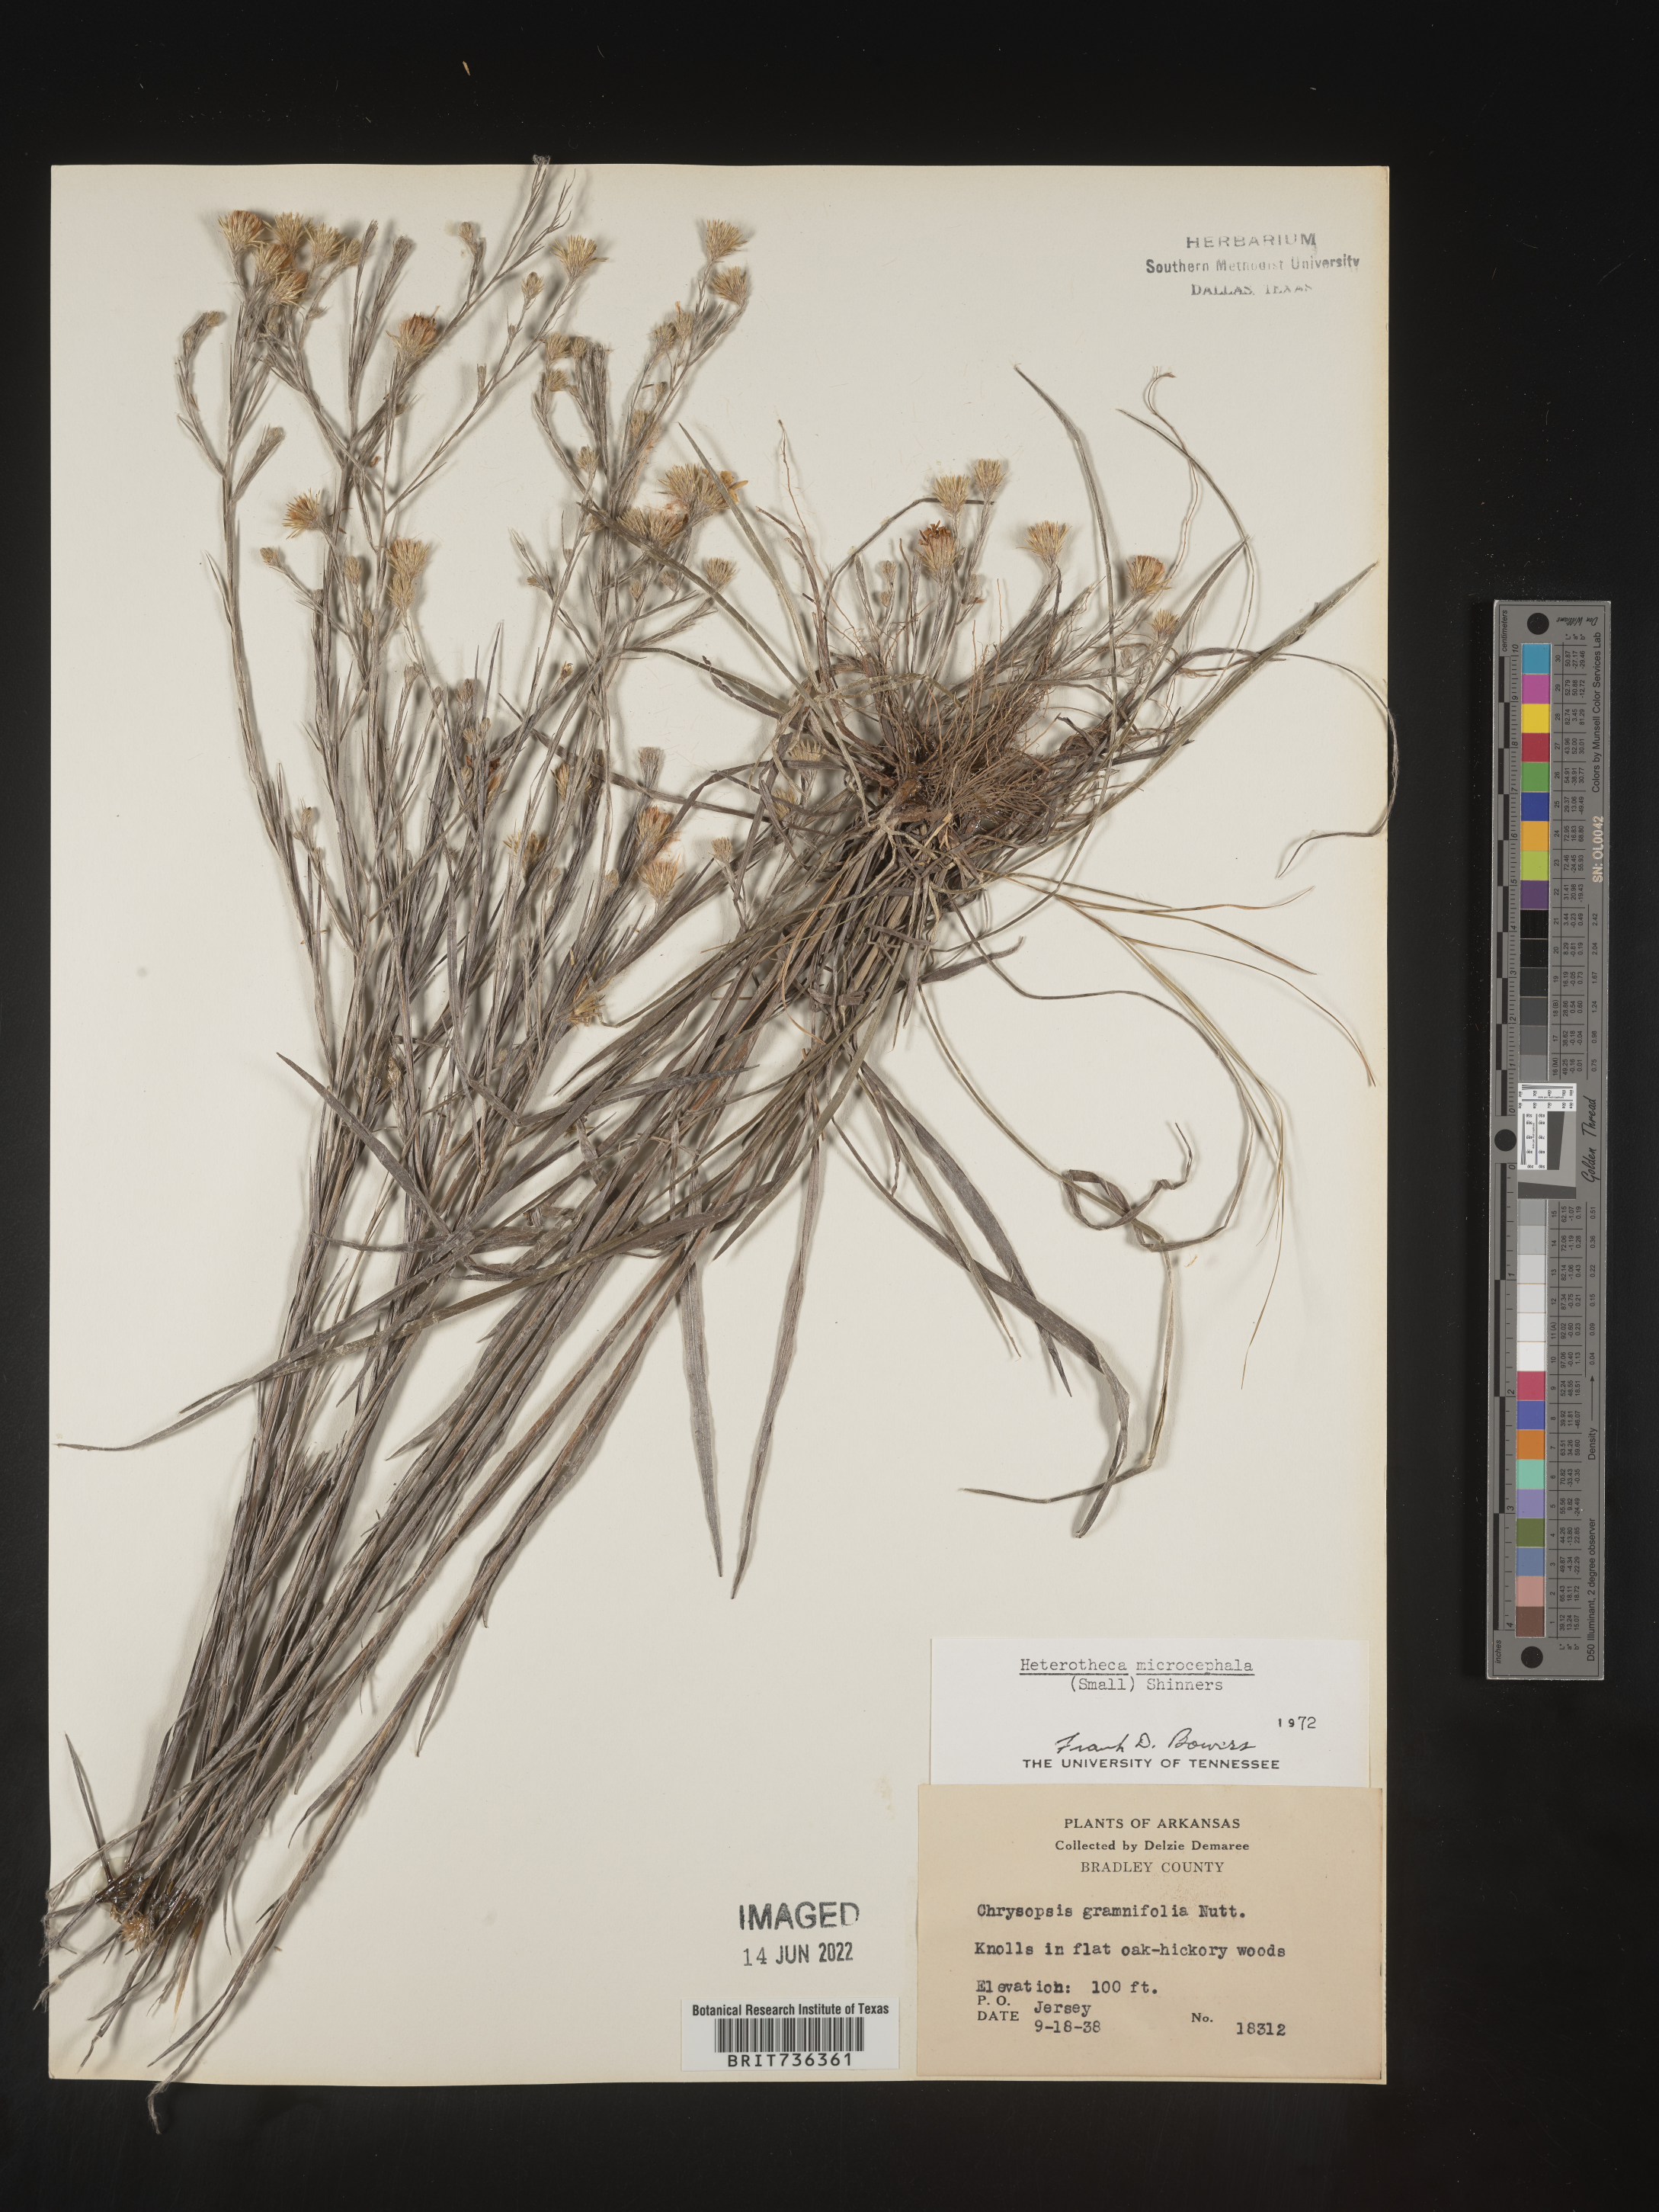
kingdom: Plantae
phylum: Tracheophyta
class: Magnoliopsida
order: Asterales
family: Asteraceae
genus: Pityopsis
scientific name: Pityopsis tenuifolia
